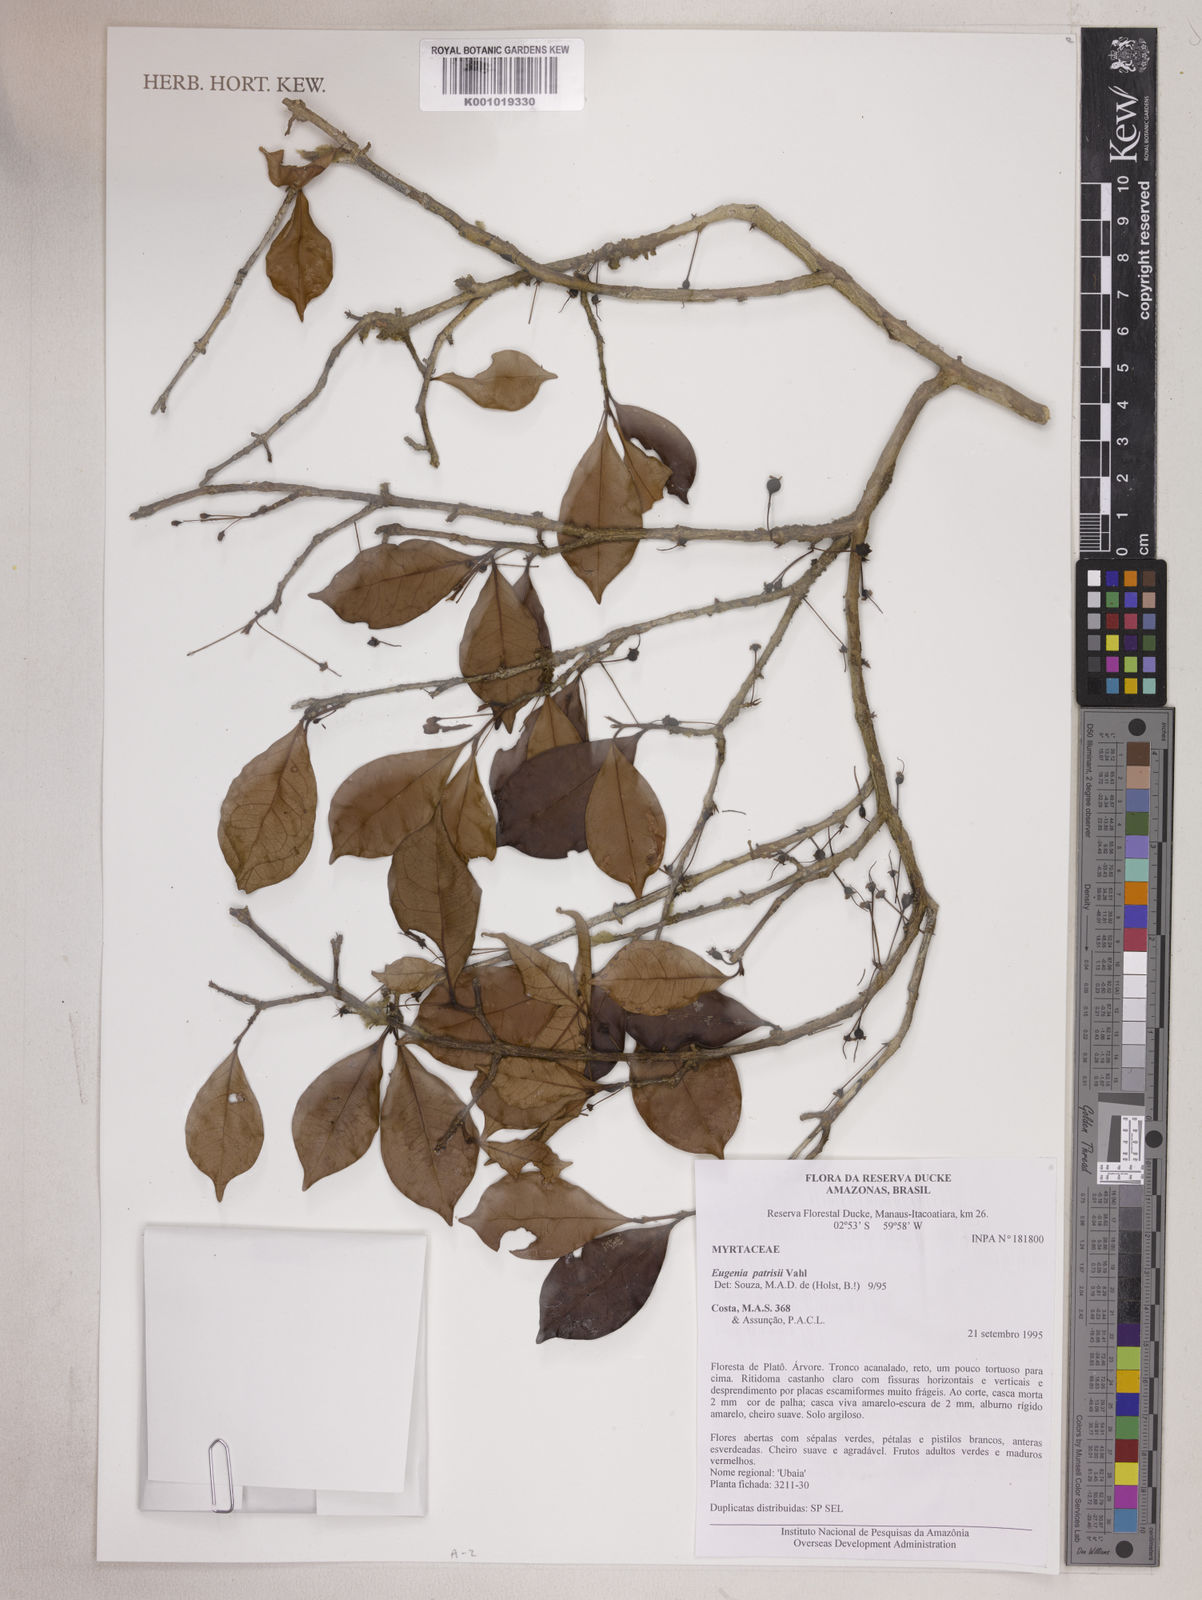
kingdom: Plantae
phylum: Tracheophyta
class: Magnoliopsida
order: Myrtales
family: Myrtaceae
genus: Eugenia
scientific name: Eugenia patrisii
